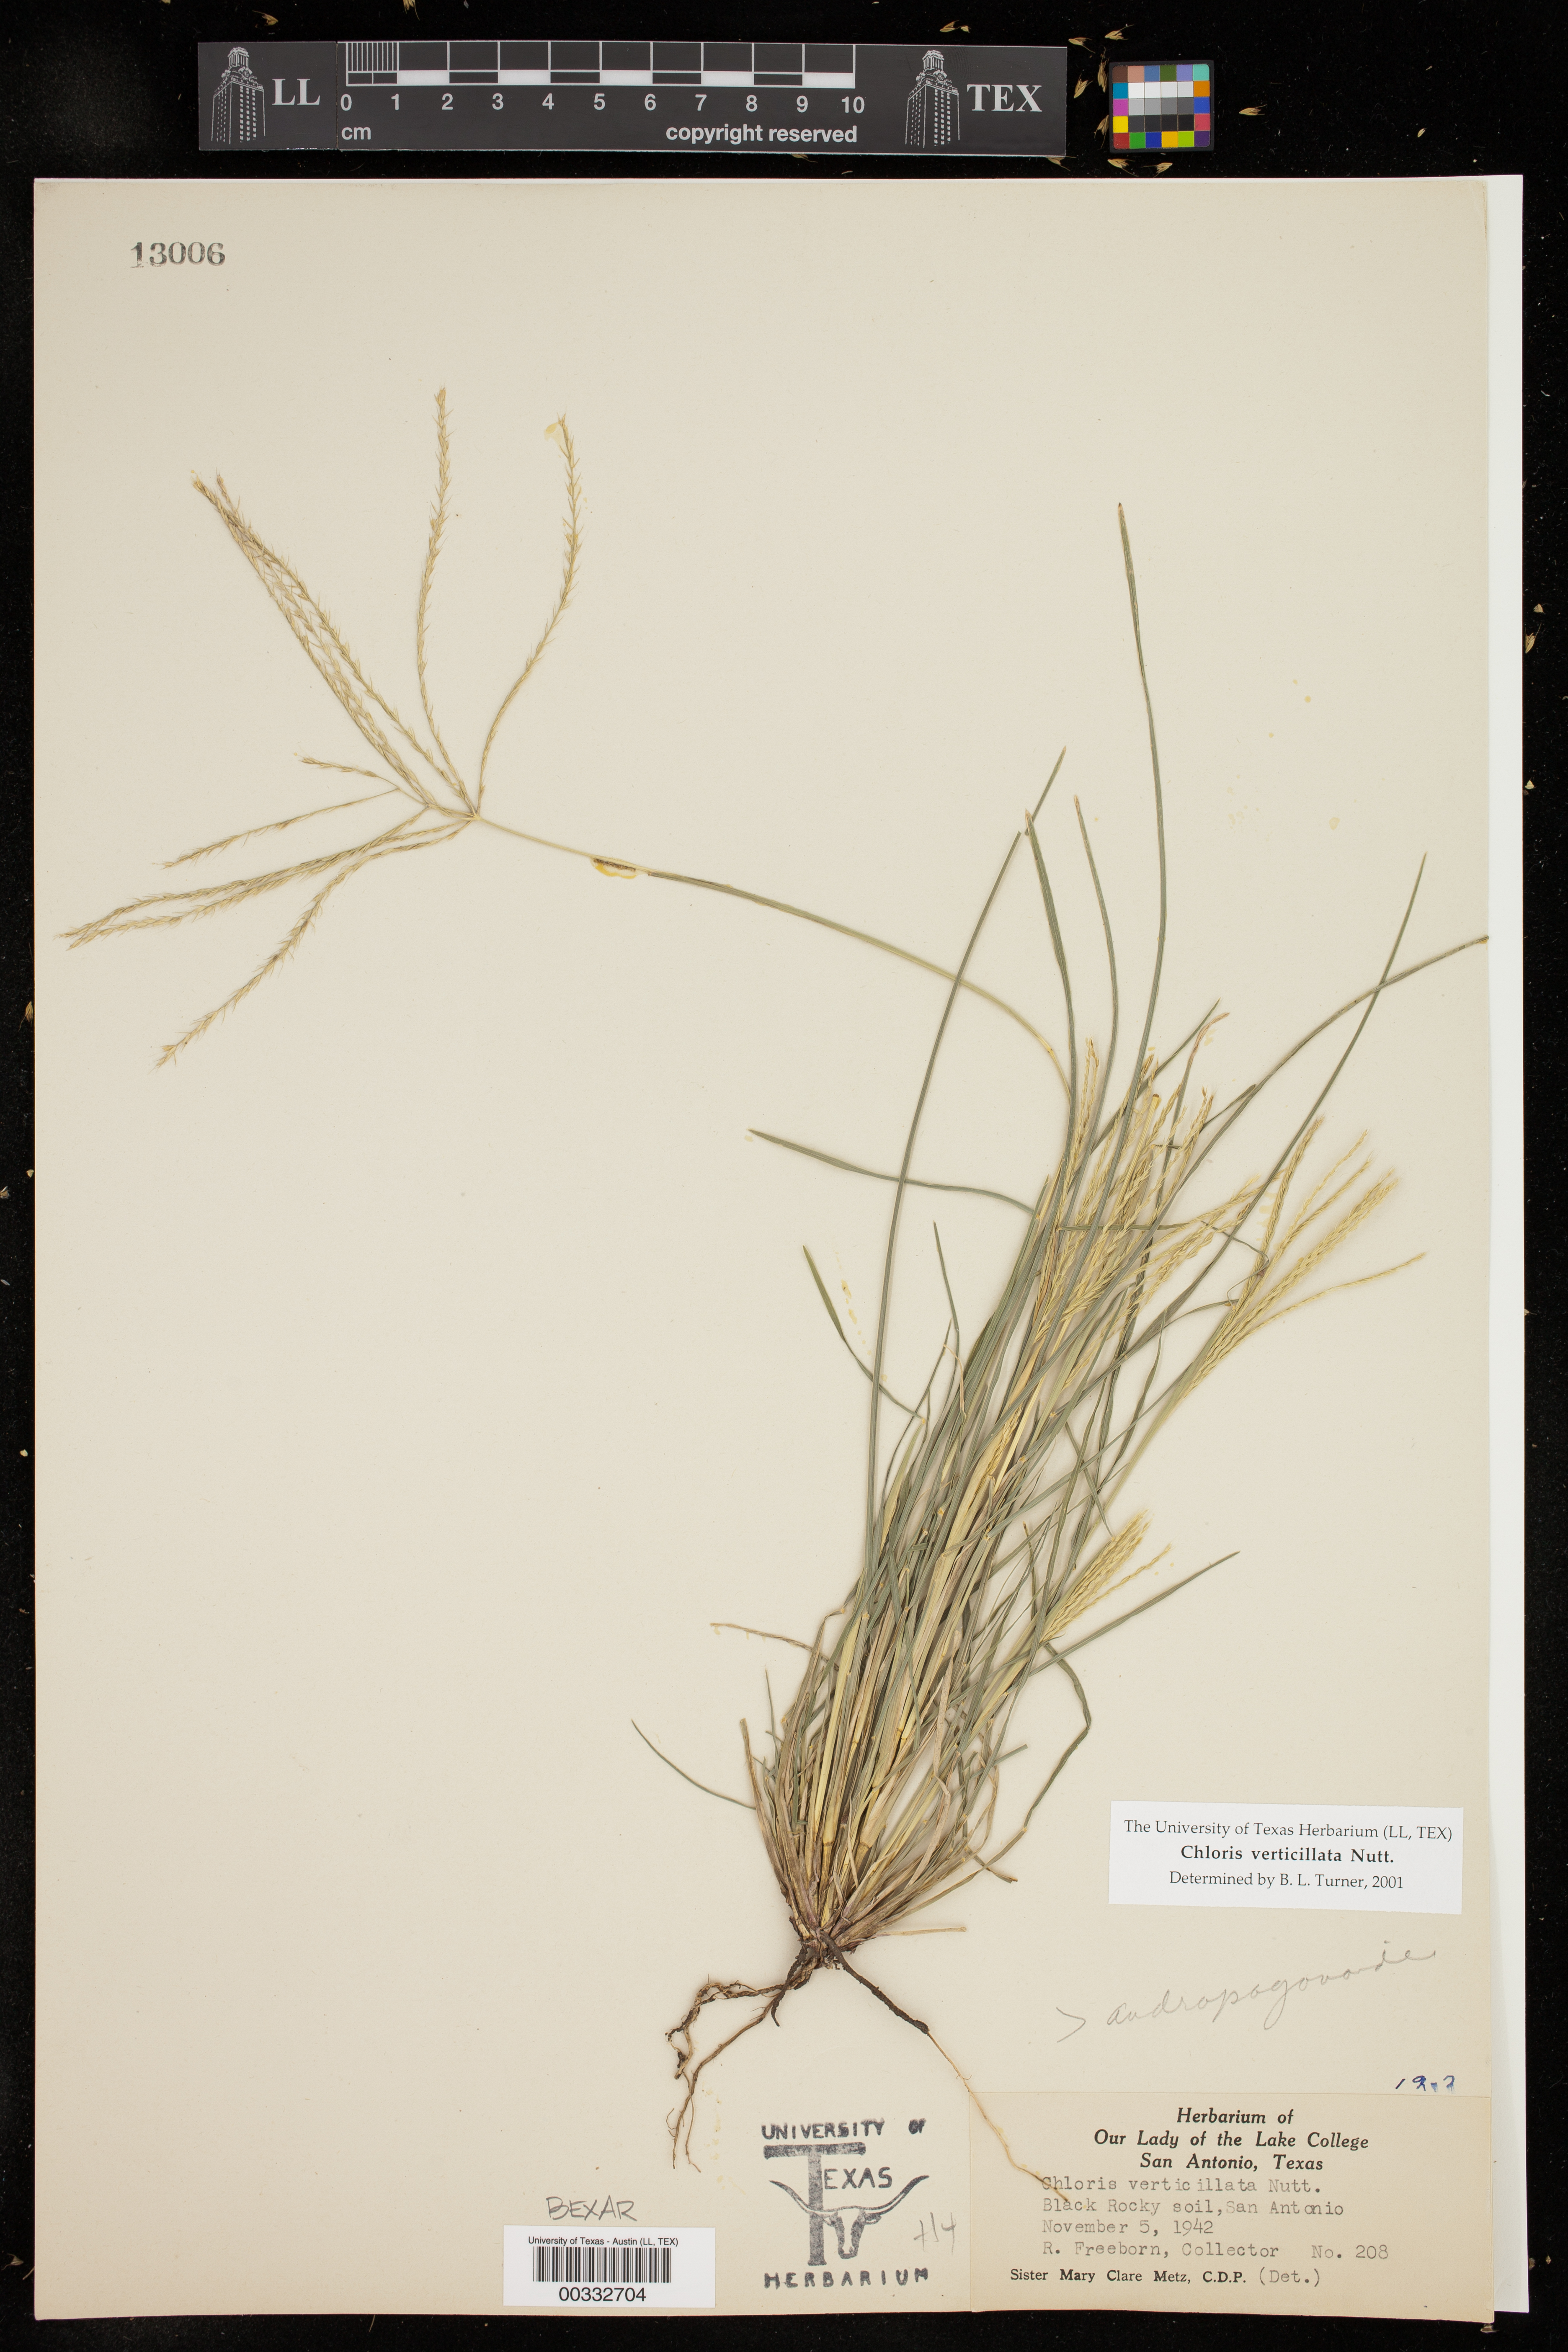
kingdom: Plantae
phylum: Tracheophyta
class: Liliopsida
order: Poales
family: Poaceae
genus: Chloris
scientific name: Chloris verticillata
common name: Tumble windmill grass
